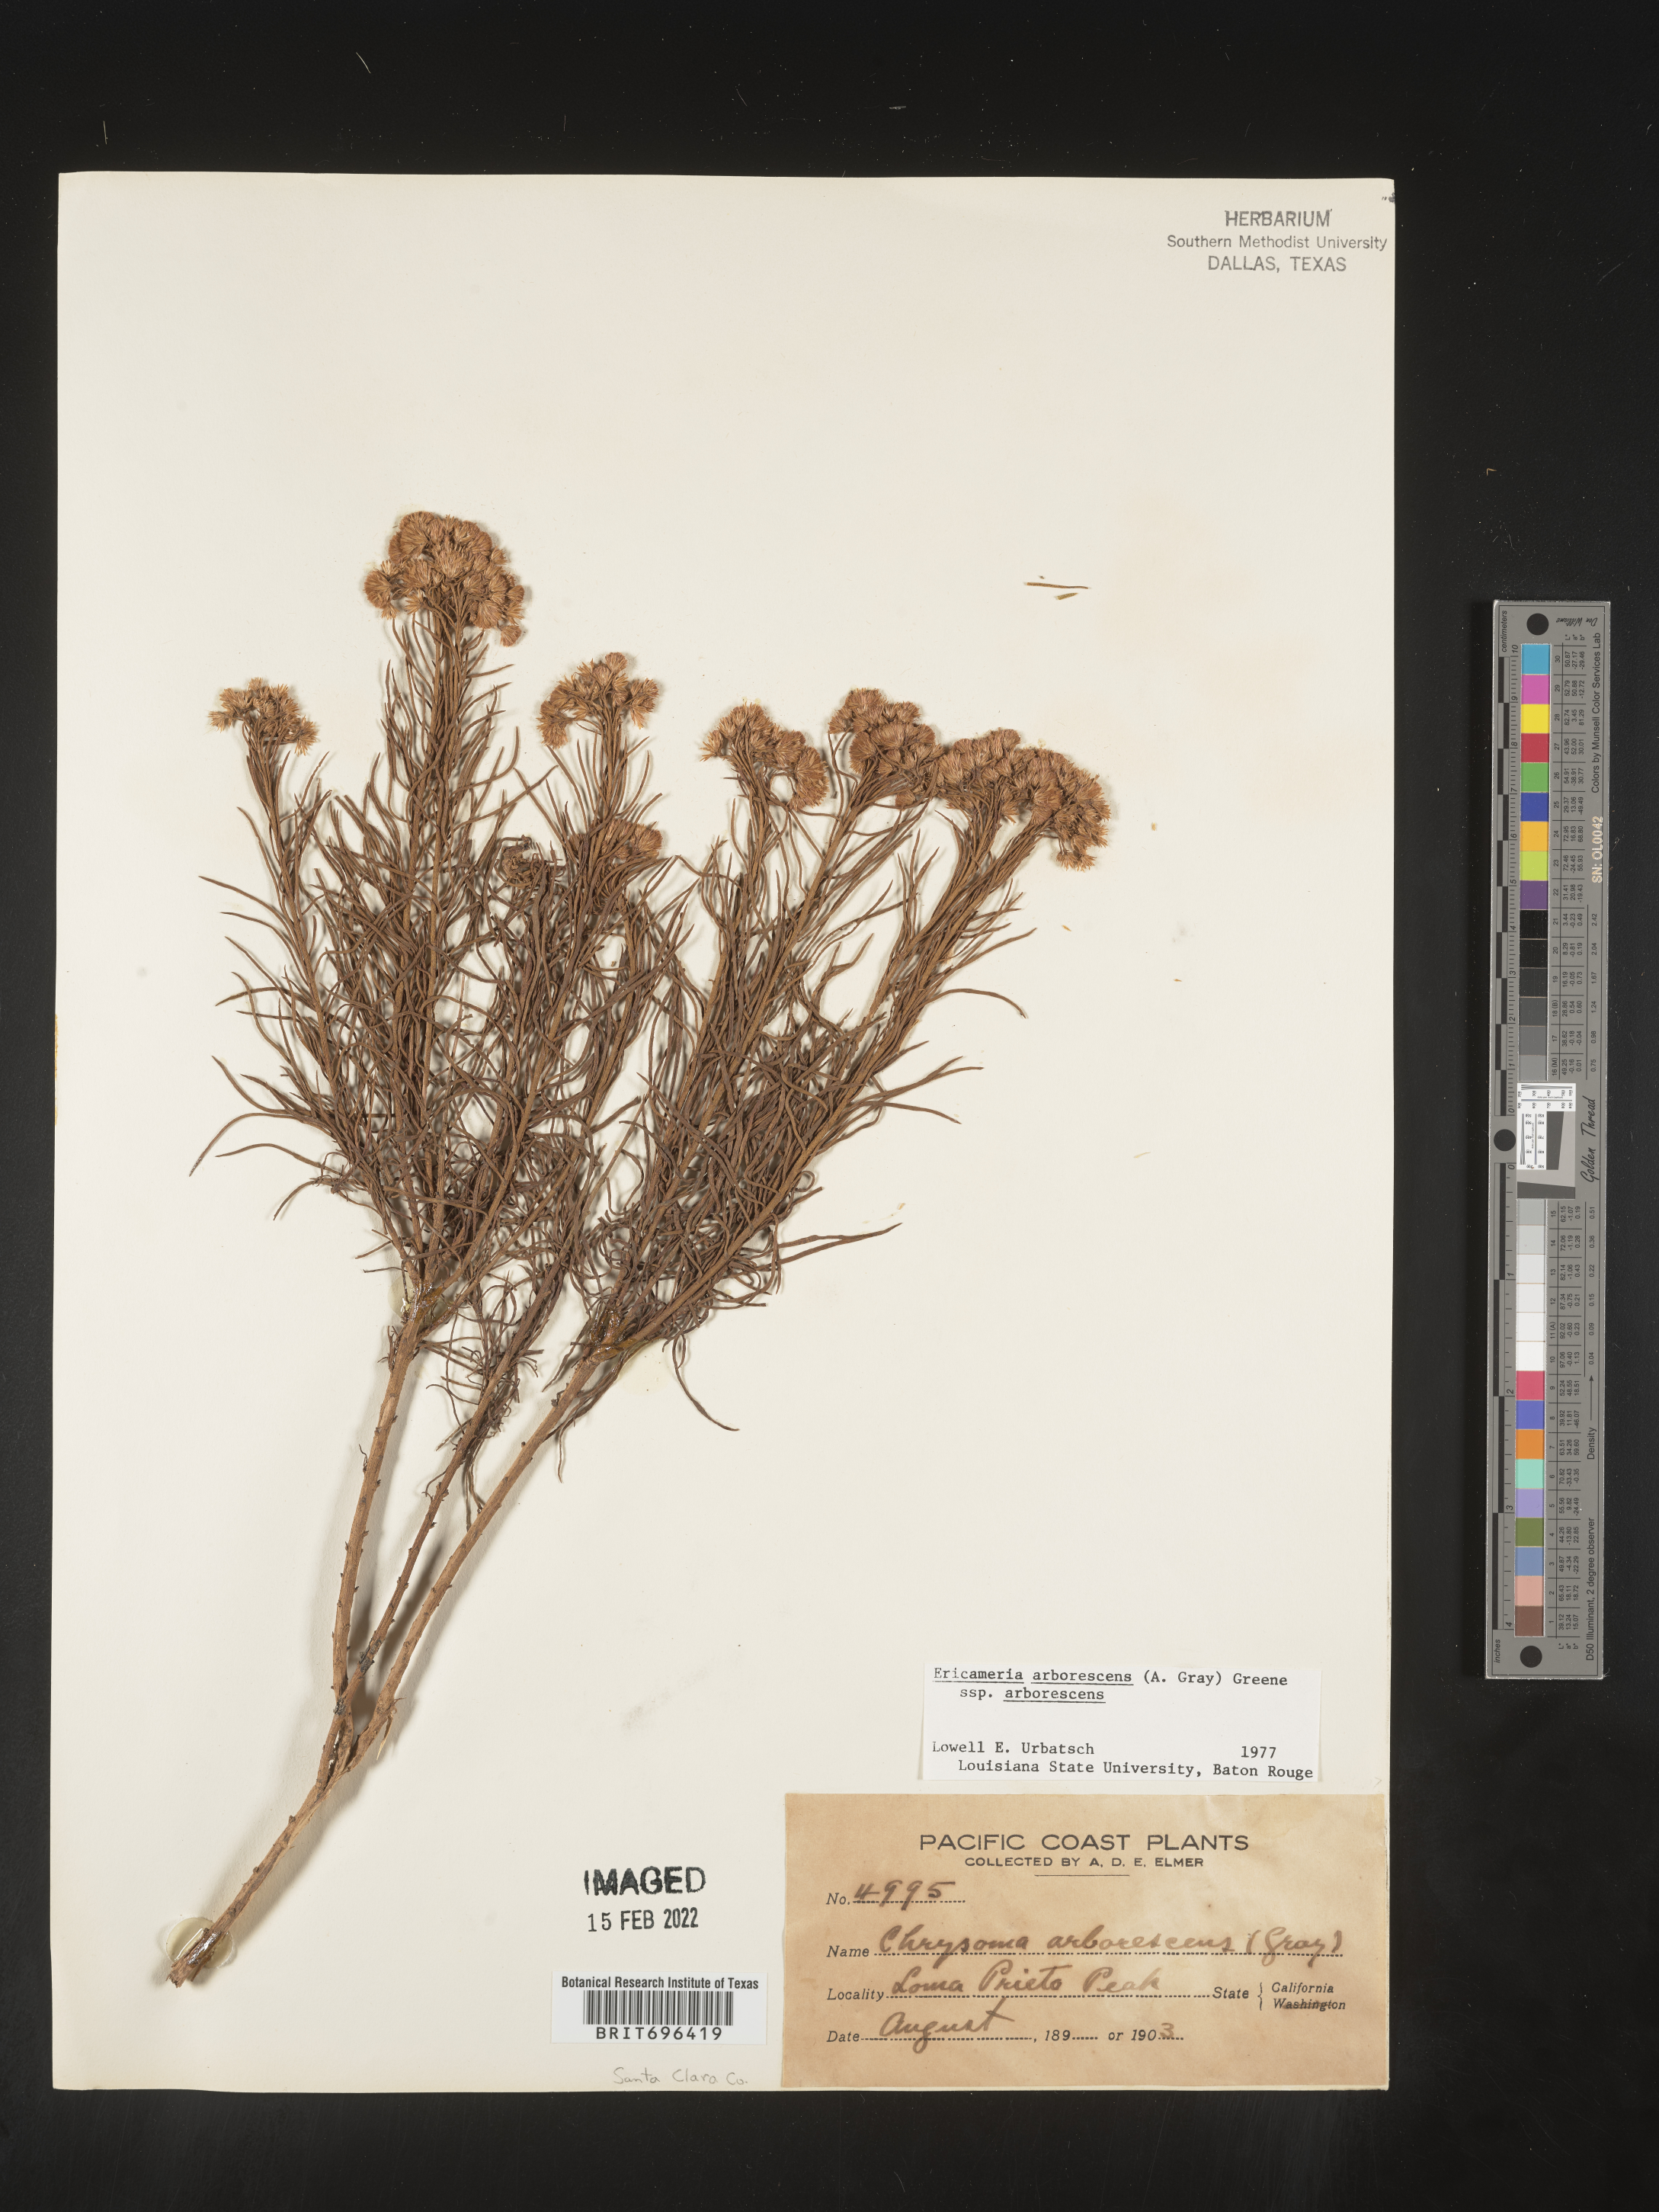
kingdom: Plantae
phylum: Tracheophyta
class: Magnoliopsida
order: Asterales
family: Asteraceae
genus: Ericameria
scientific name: Ericameria arborescens
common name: Goldenfleece
